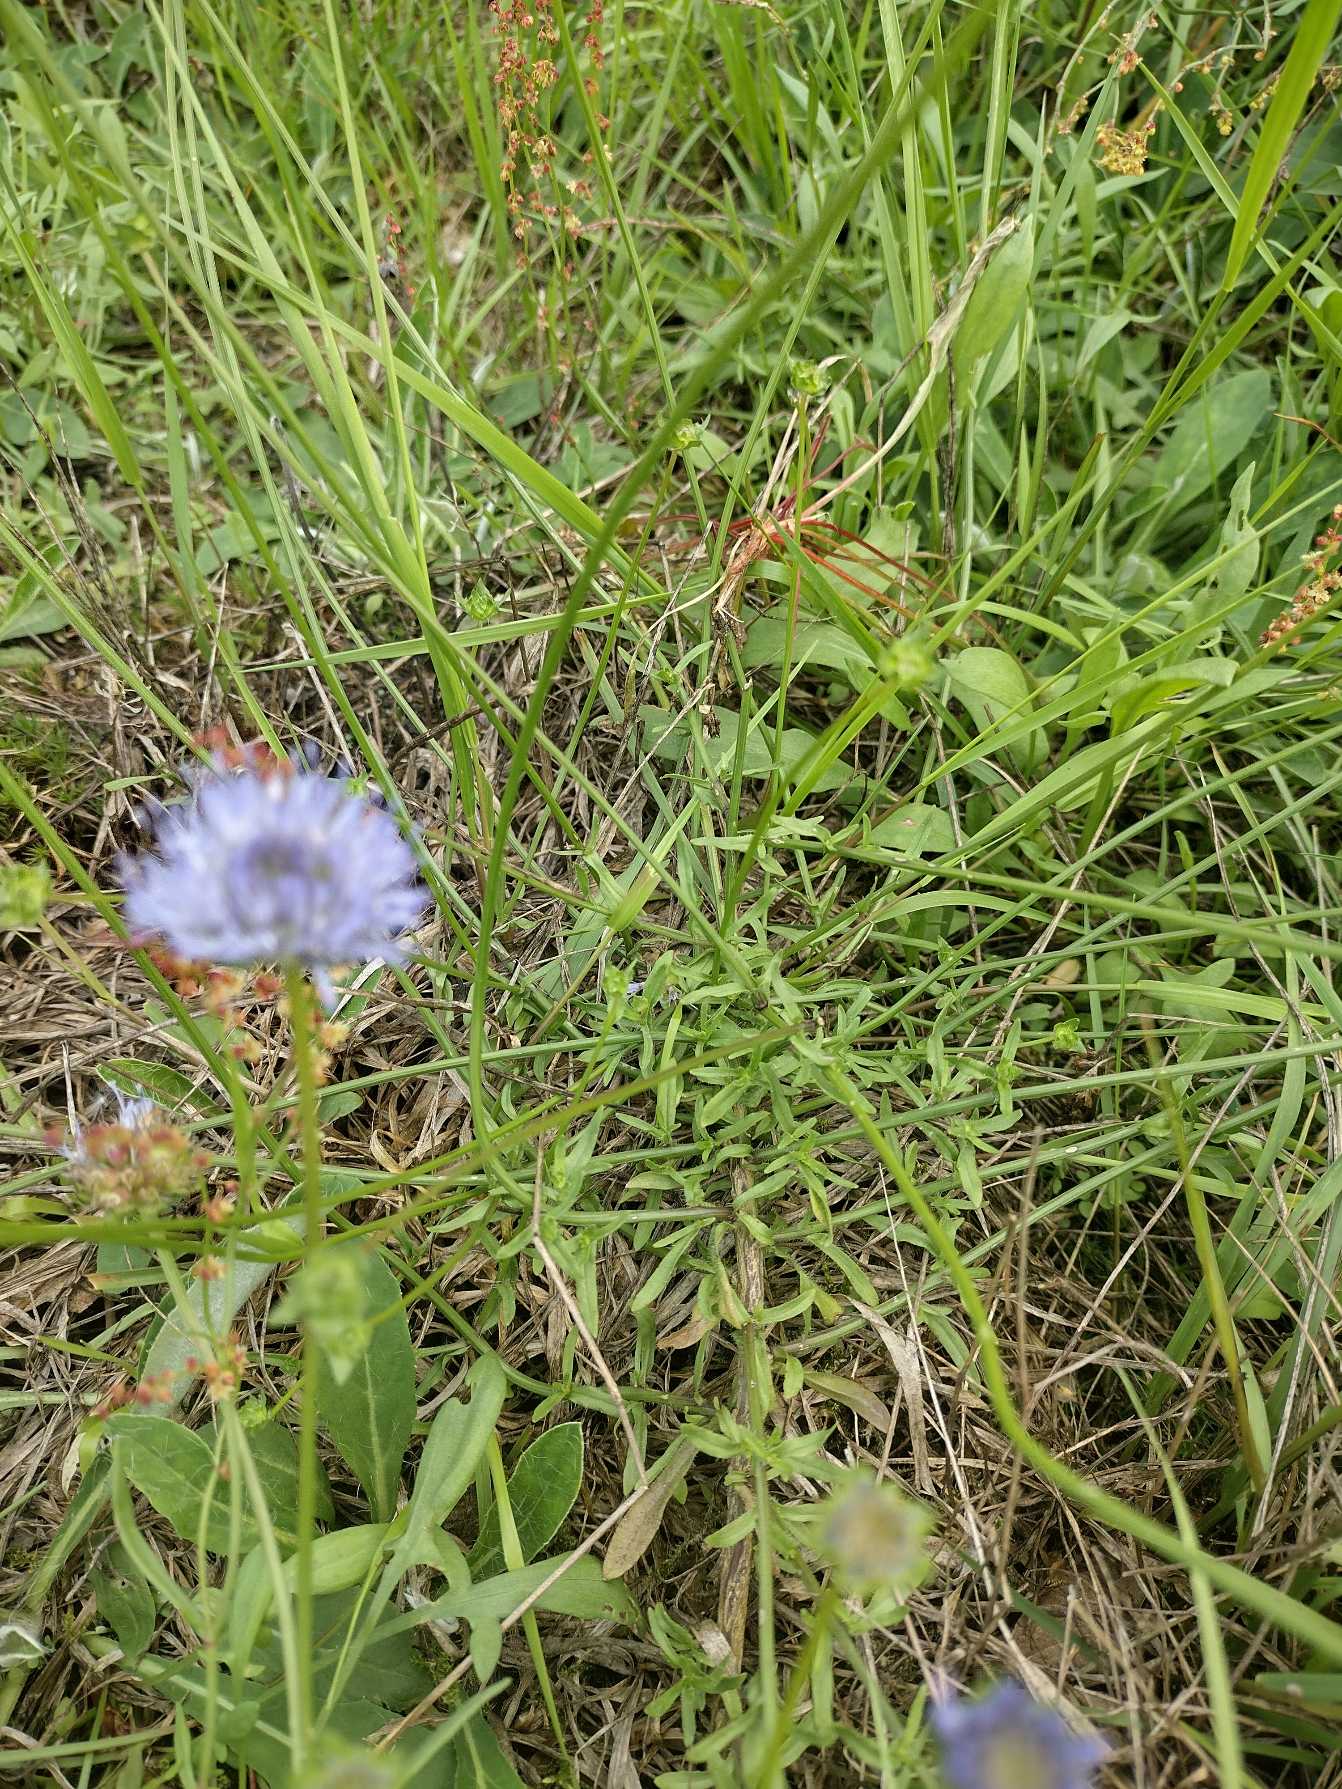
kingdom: Plantae
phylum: Tracheophyta
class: Magnoliopsida
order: Asterales
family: Campanulaceae
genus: Jasione
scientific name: Jasione montana
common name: Blåmunke
